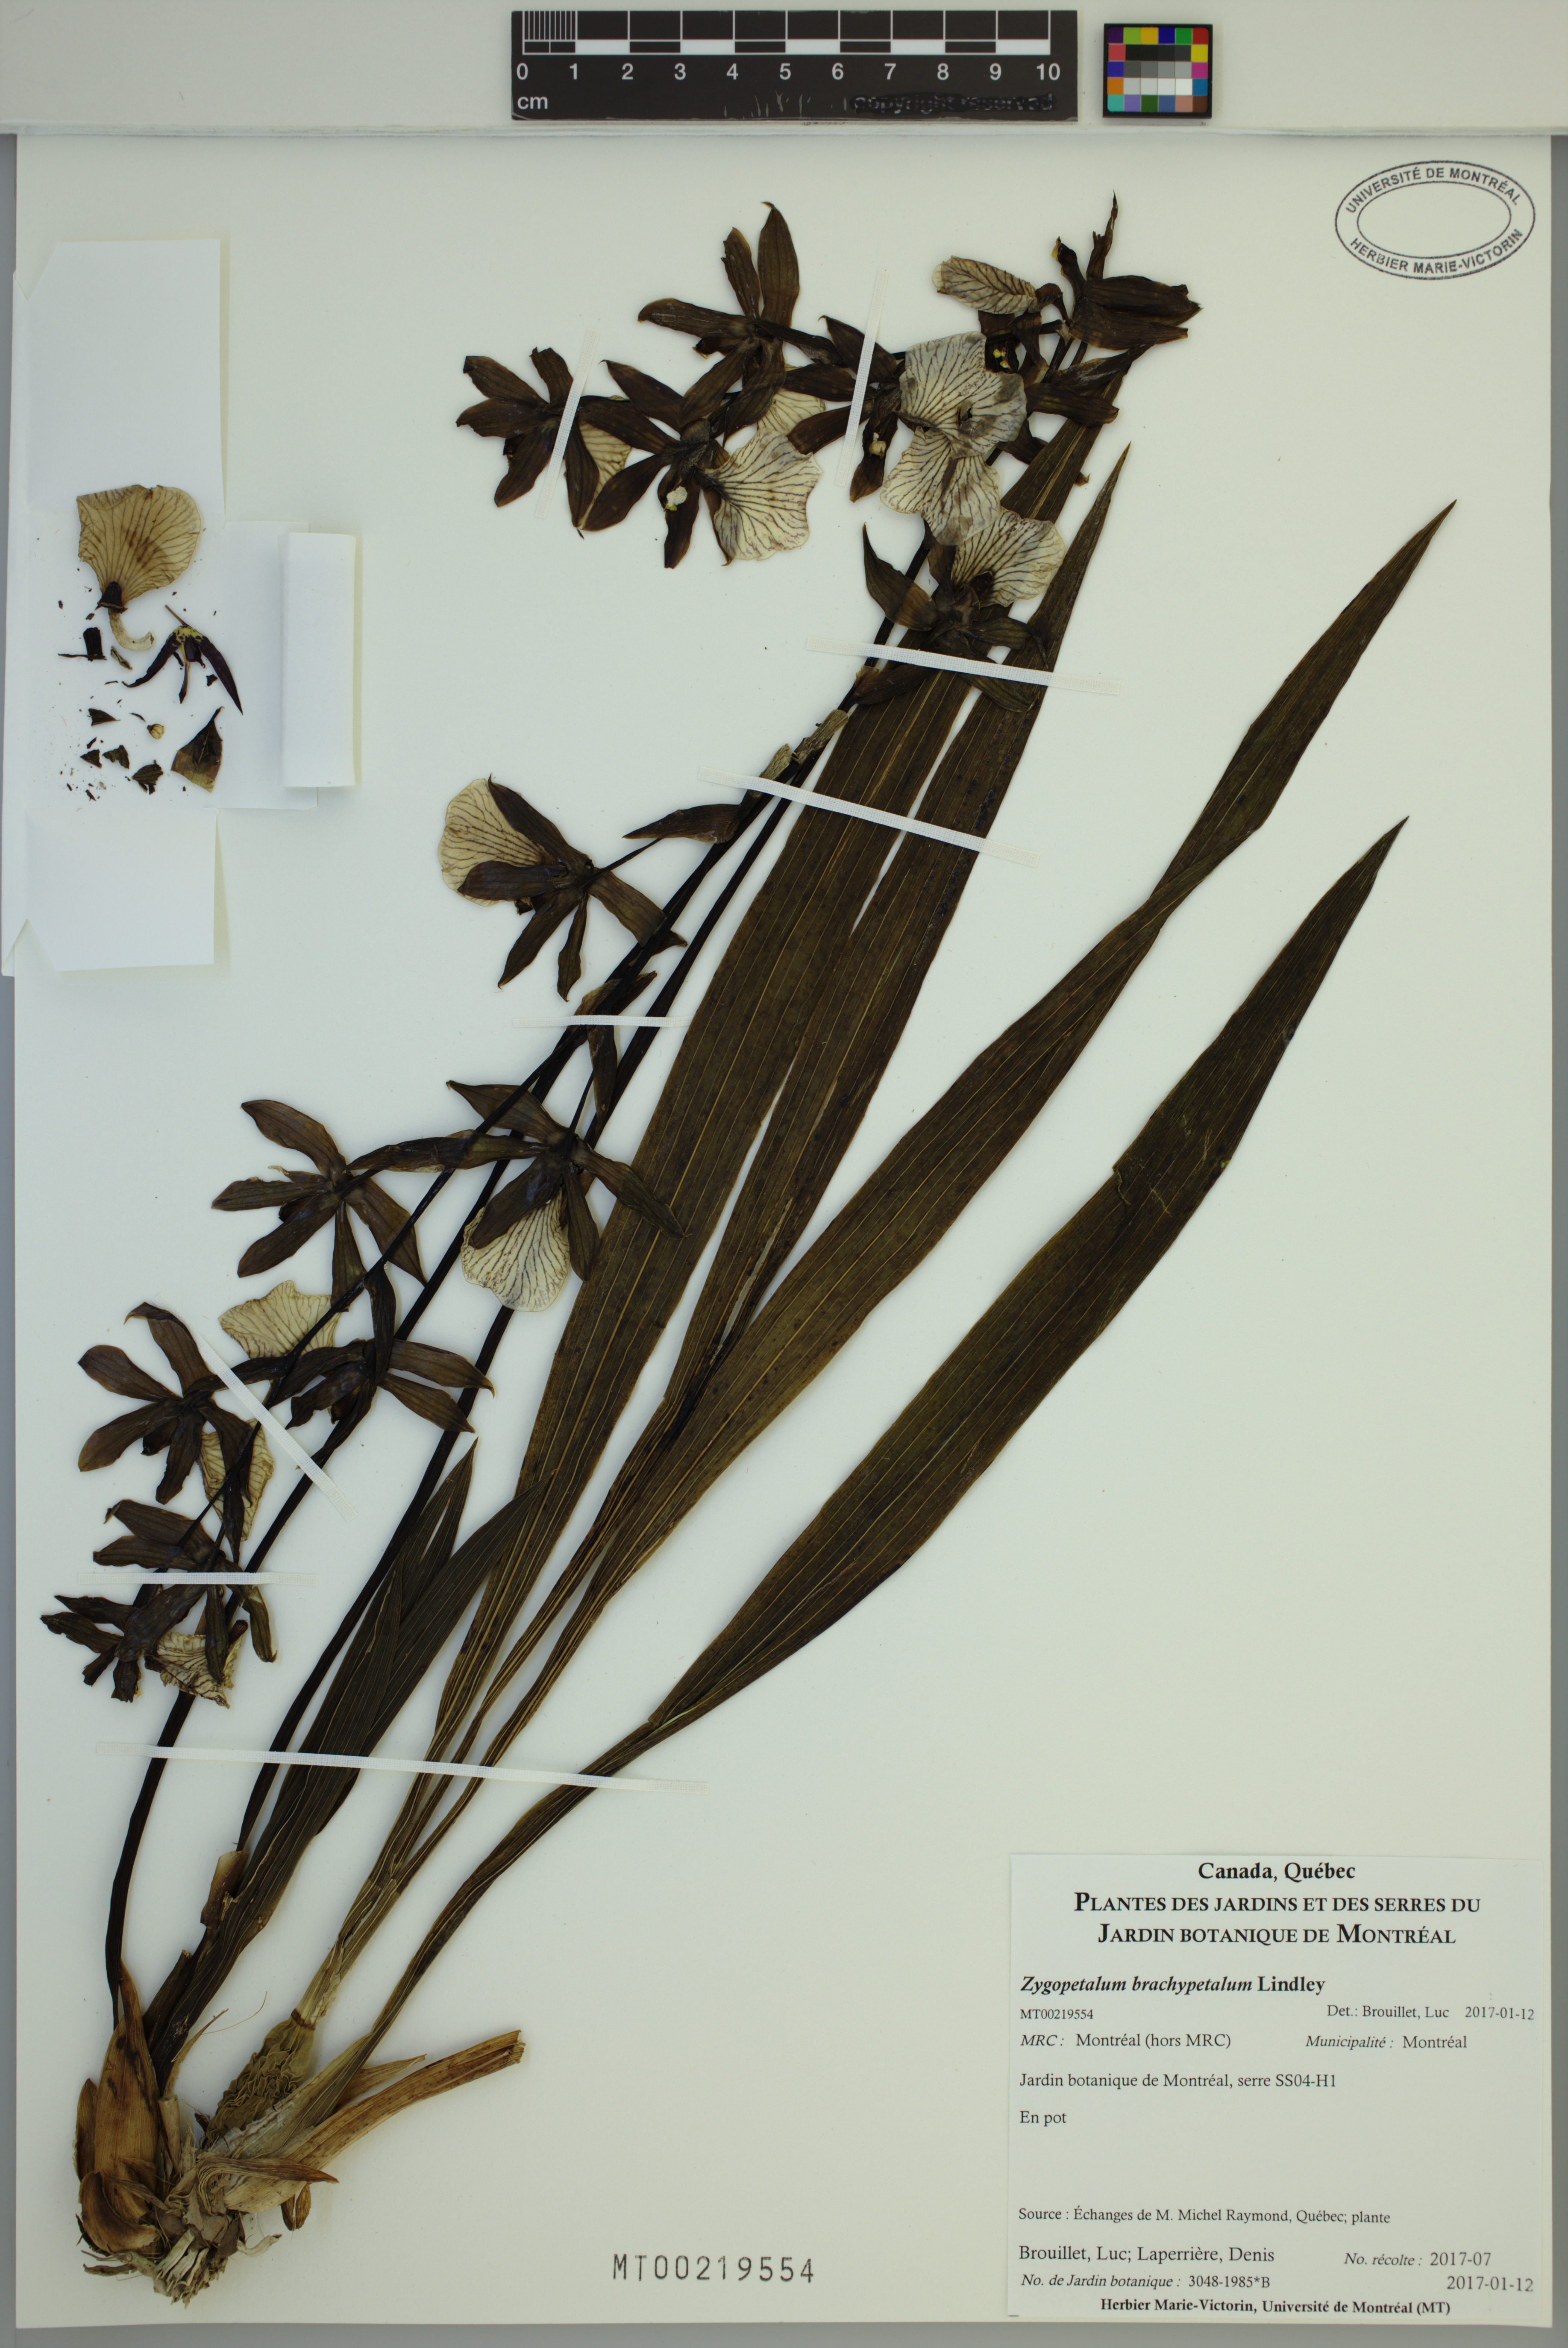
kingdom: Plantae
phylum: Tracheophyta
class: Liliopsida
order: Asparagales
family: Orchidaceae
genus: Zygopetalum
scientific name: Zygopetalum brachypetalum
